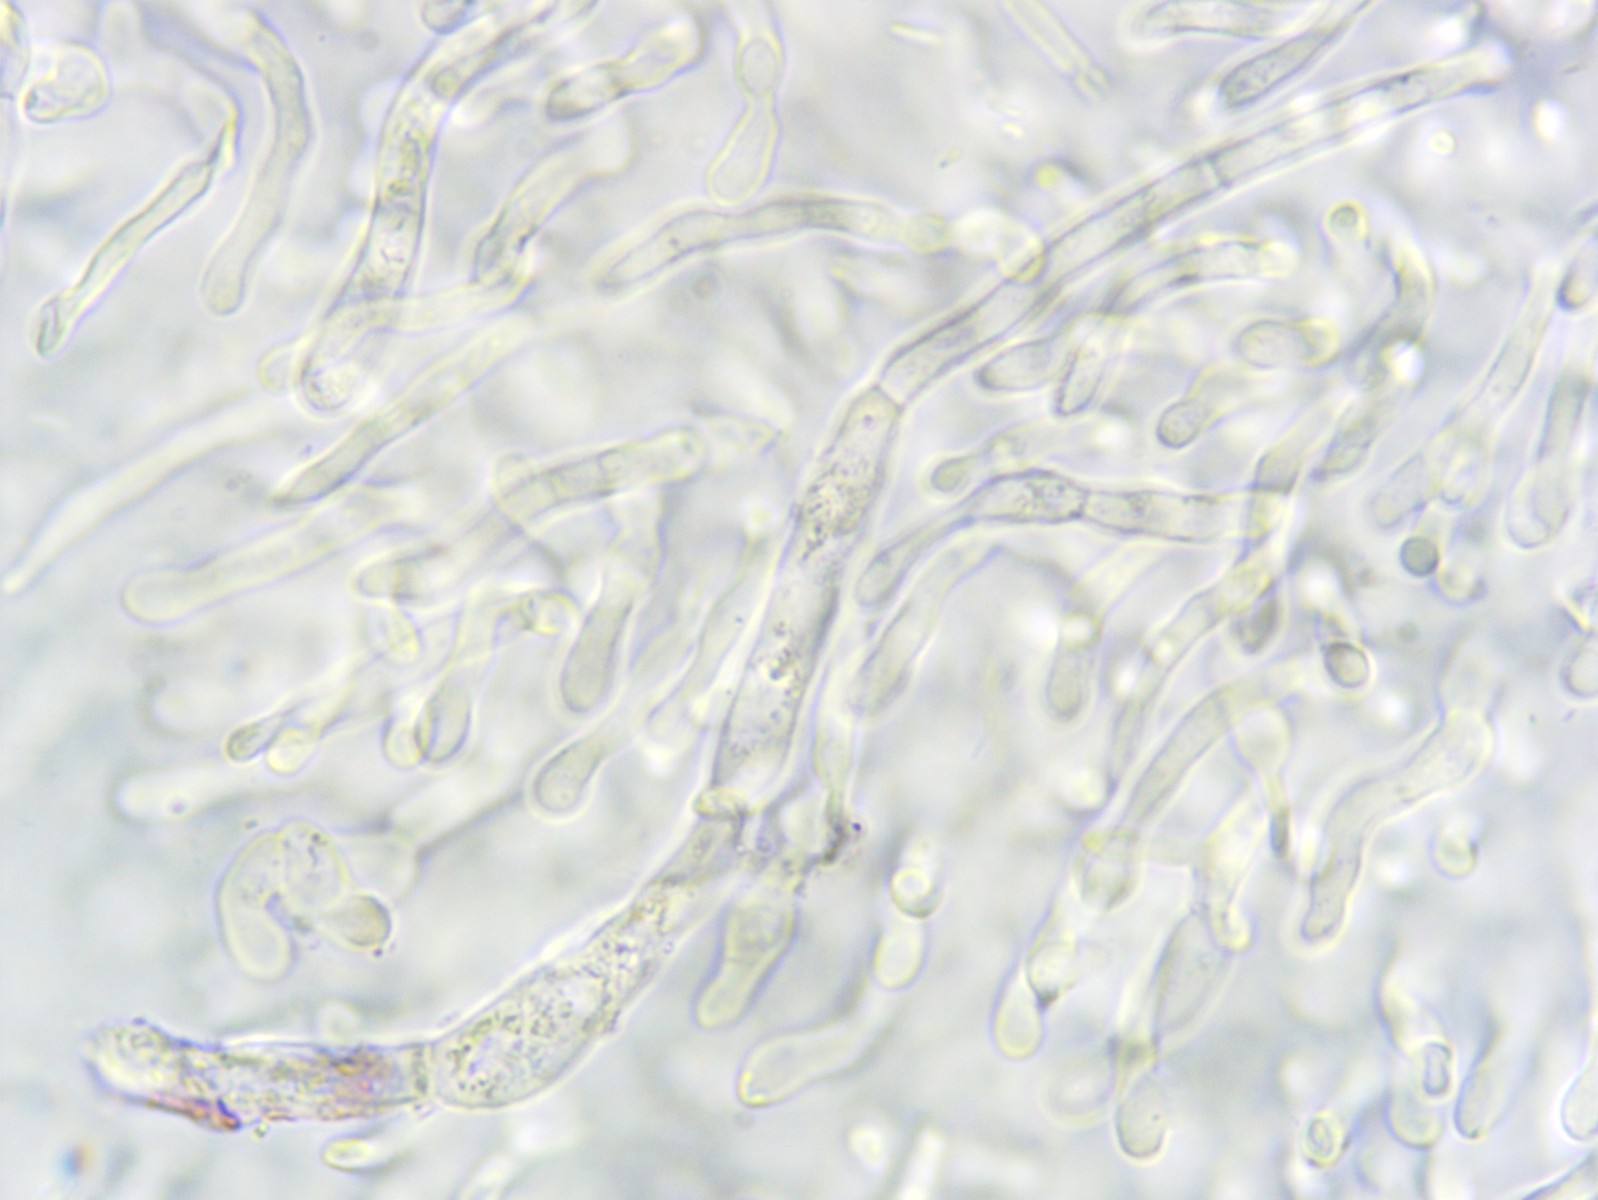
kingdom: Fungi
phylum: Basidiomycota
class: Agaricomycetes
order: Russulales
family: Russulaceae
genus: Russula
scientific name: Russula fontqueri
